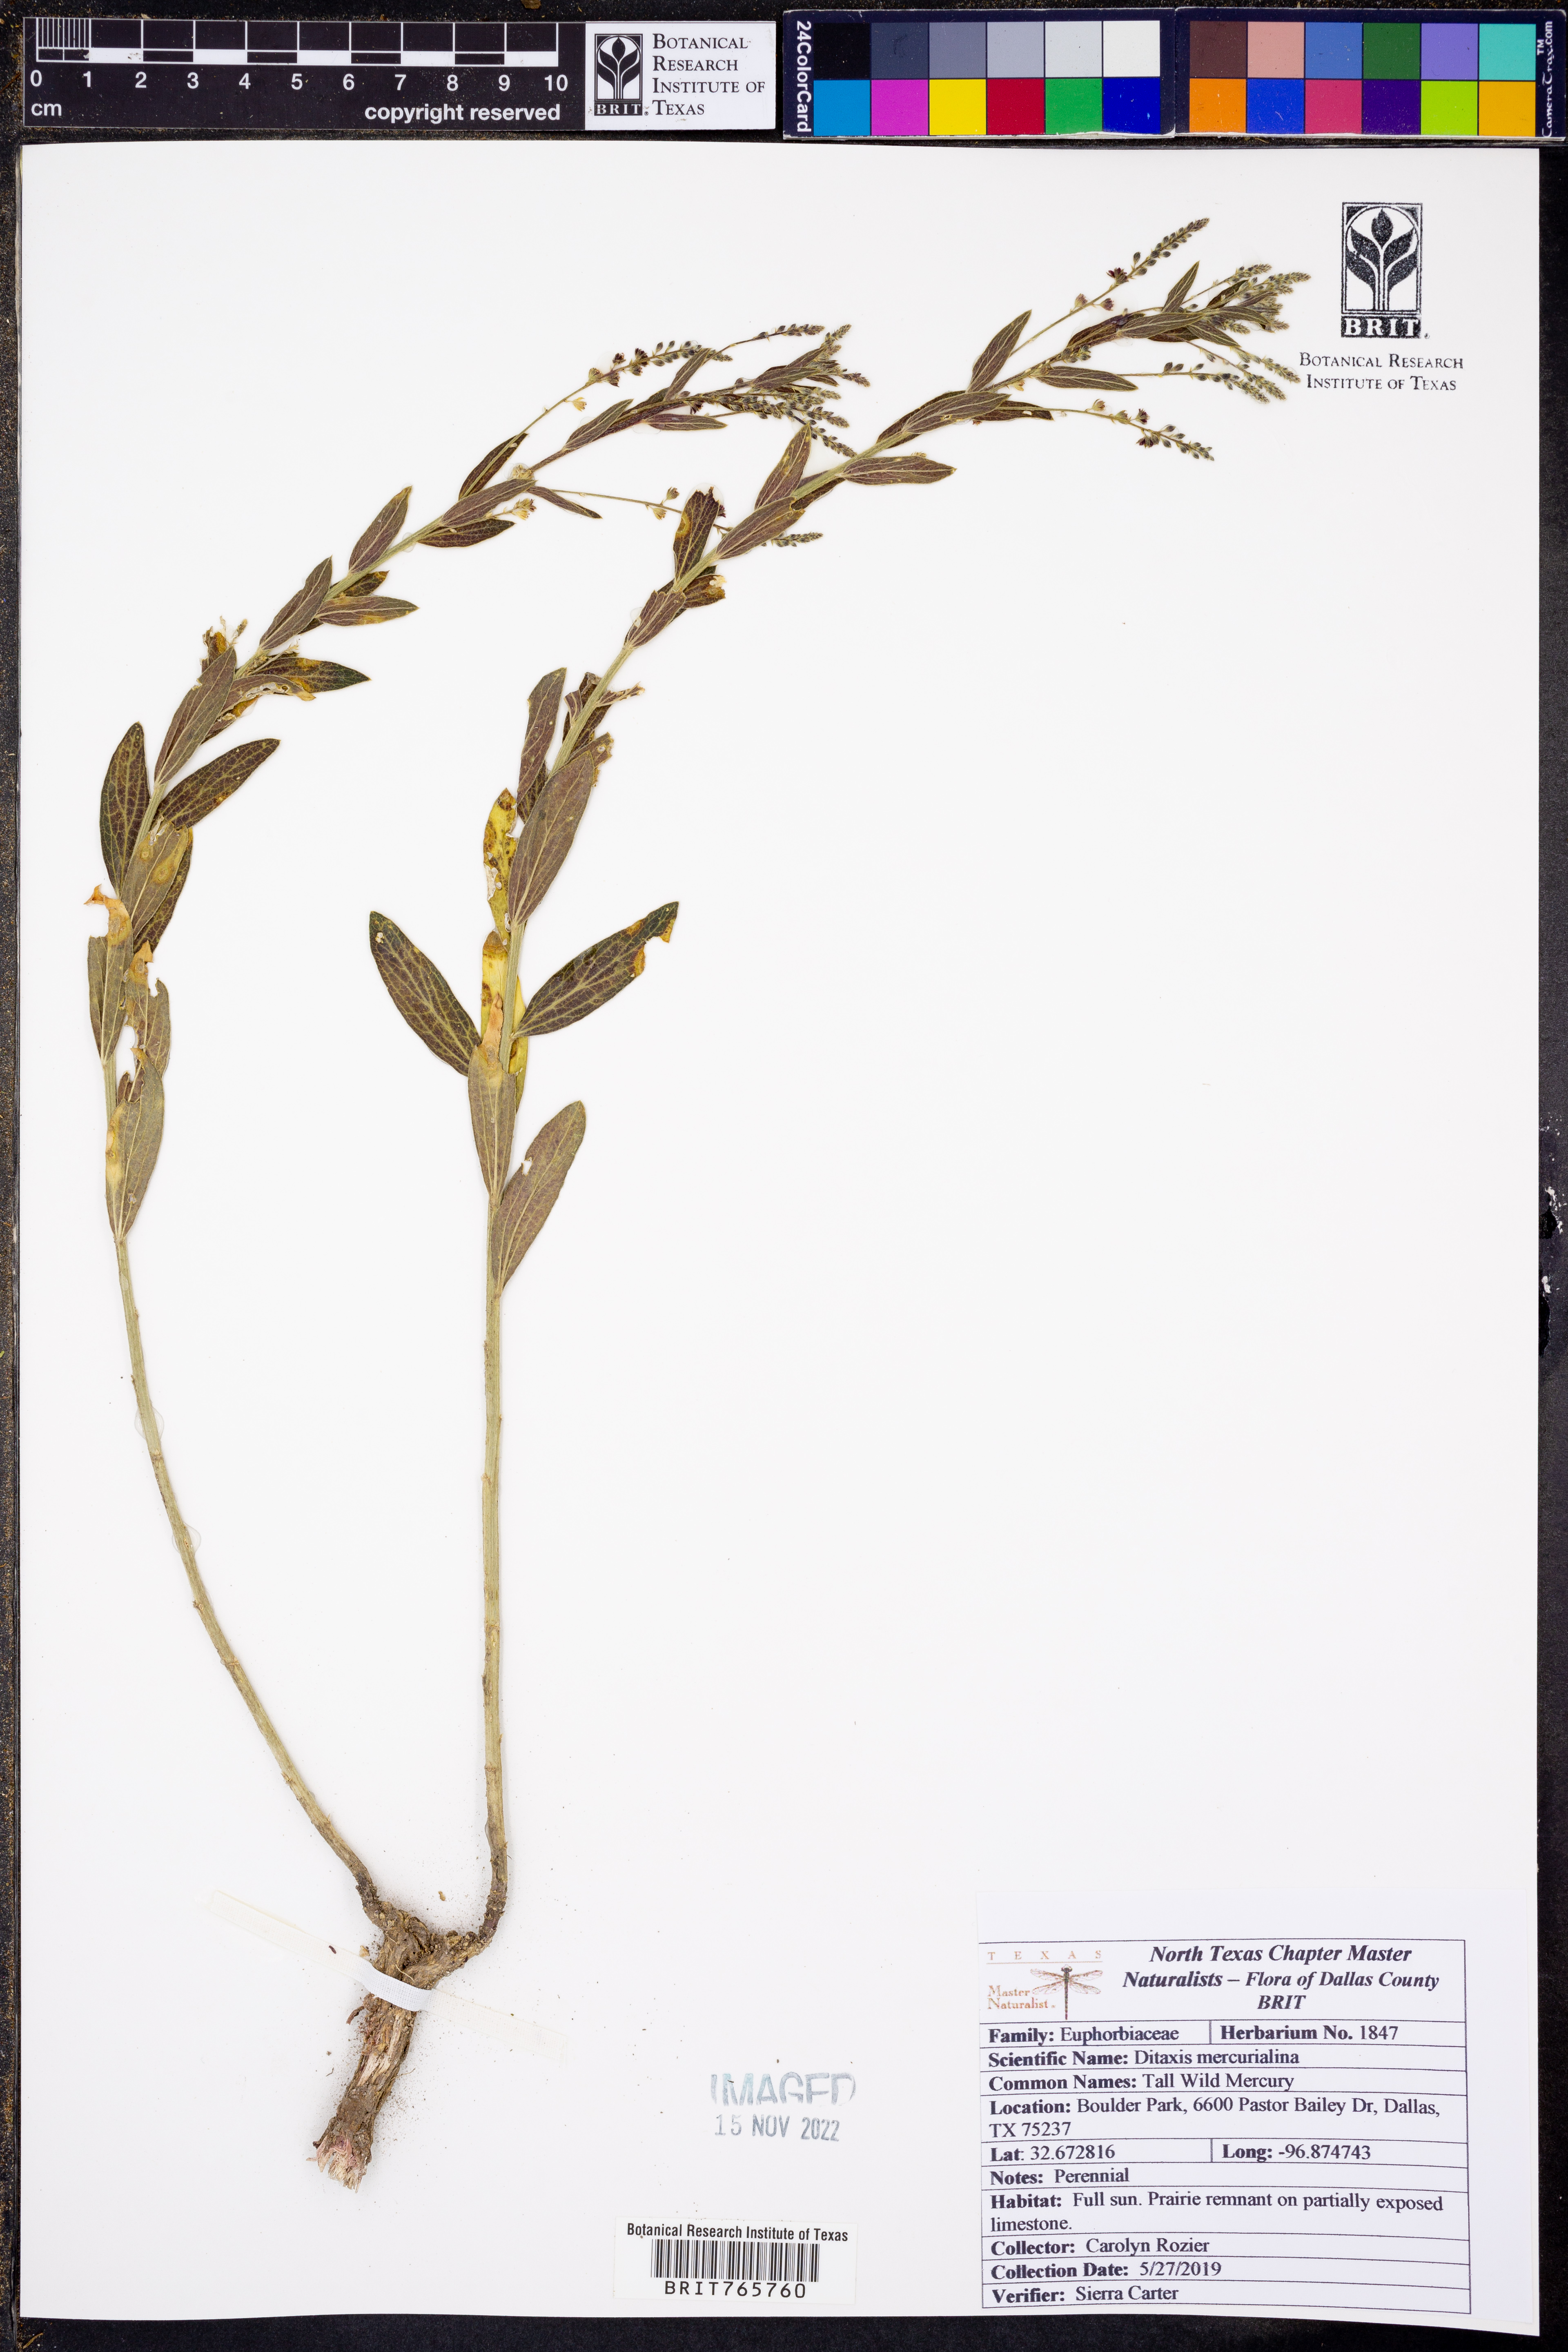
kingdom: Plantae
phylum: Tracheophyta
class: Magnoliopsida
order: Malpighiales
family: Euphorbiaceae
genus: Ditaxis
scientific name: Ditaxis mercurialina
